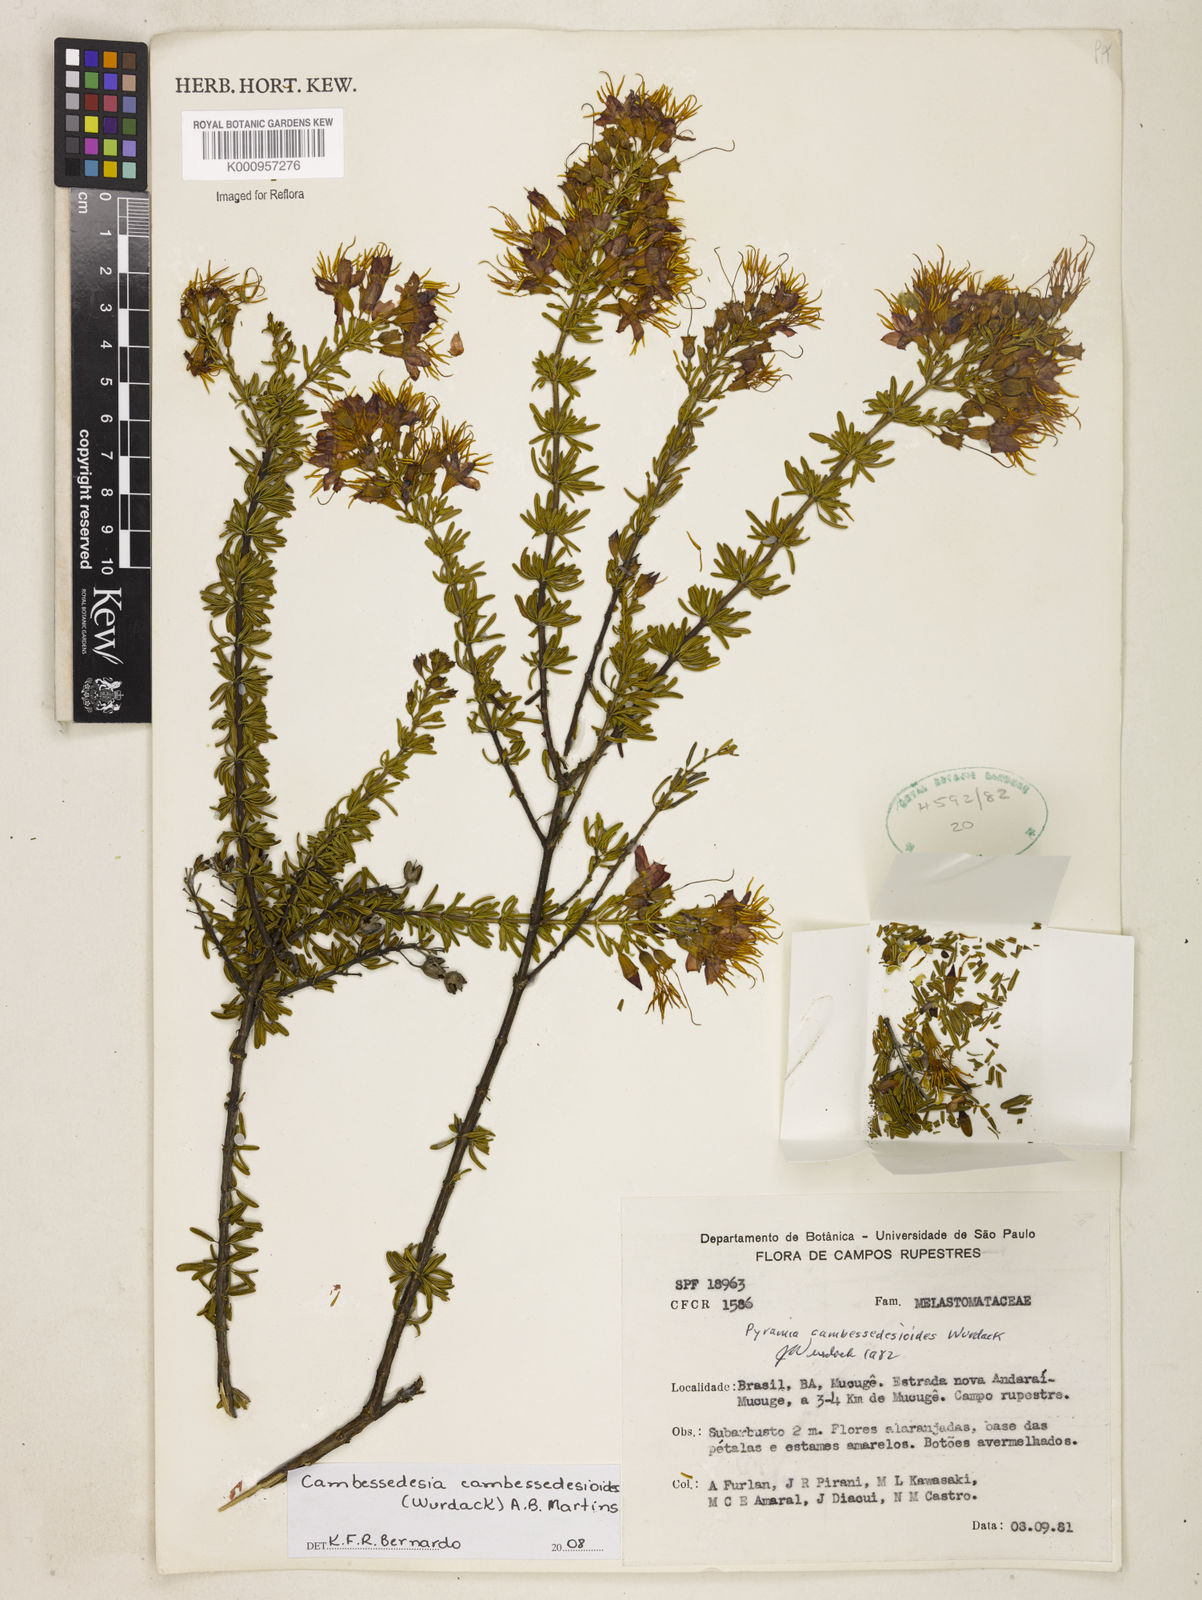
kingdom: Plantae
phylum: Tracheophyta
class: Magnoliopsida
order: Myrtales
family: Melastomataceae
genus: Cambessedesia
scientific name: Cambessedesia cambessedesioides
